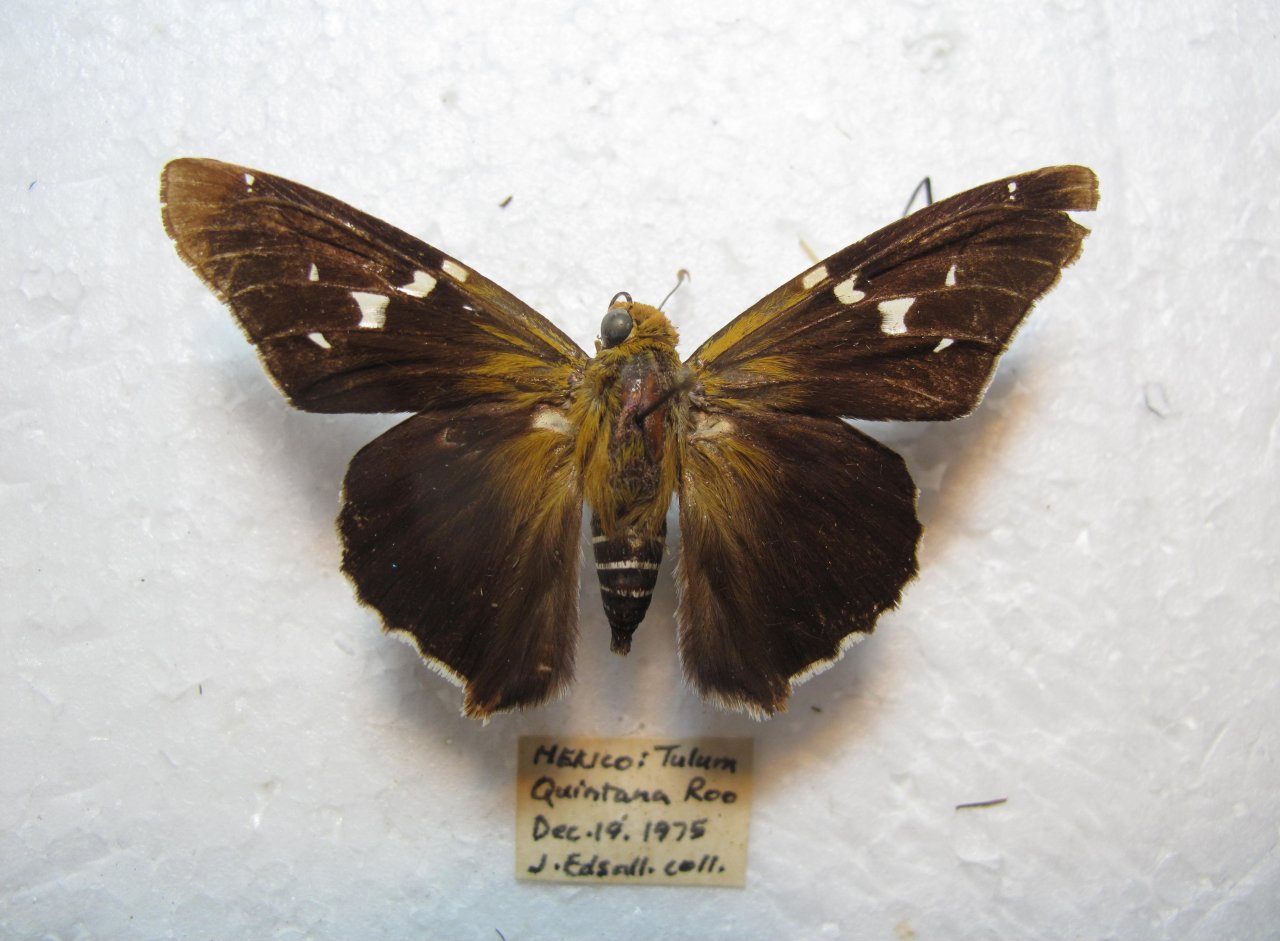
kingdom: Animalia
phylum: Arthropoda
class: Insecta
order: Lepidoptera
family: Hesperiidae
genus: Proteides
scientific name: Proteides mercurius
